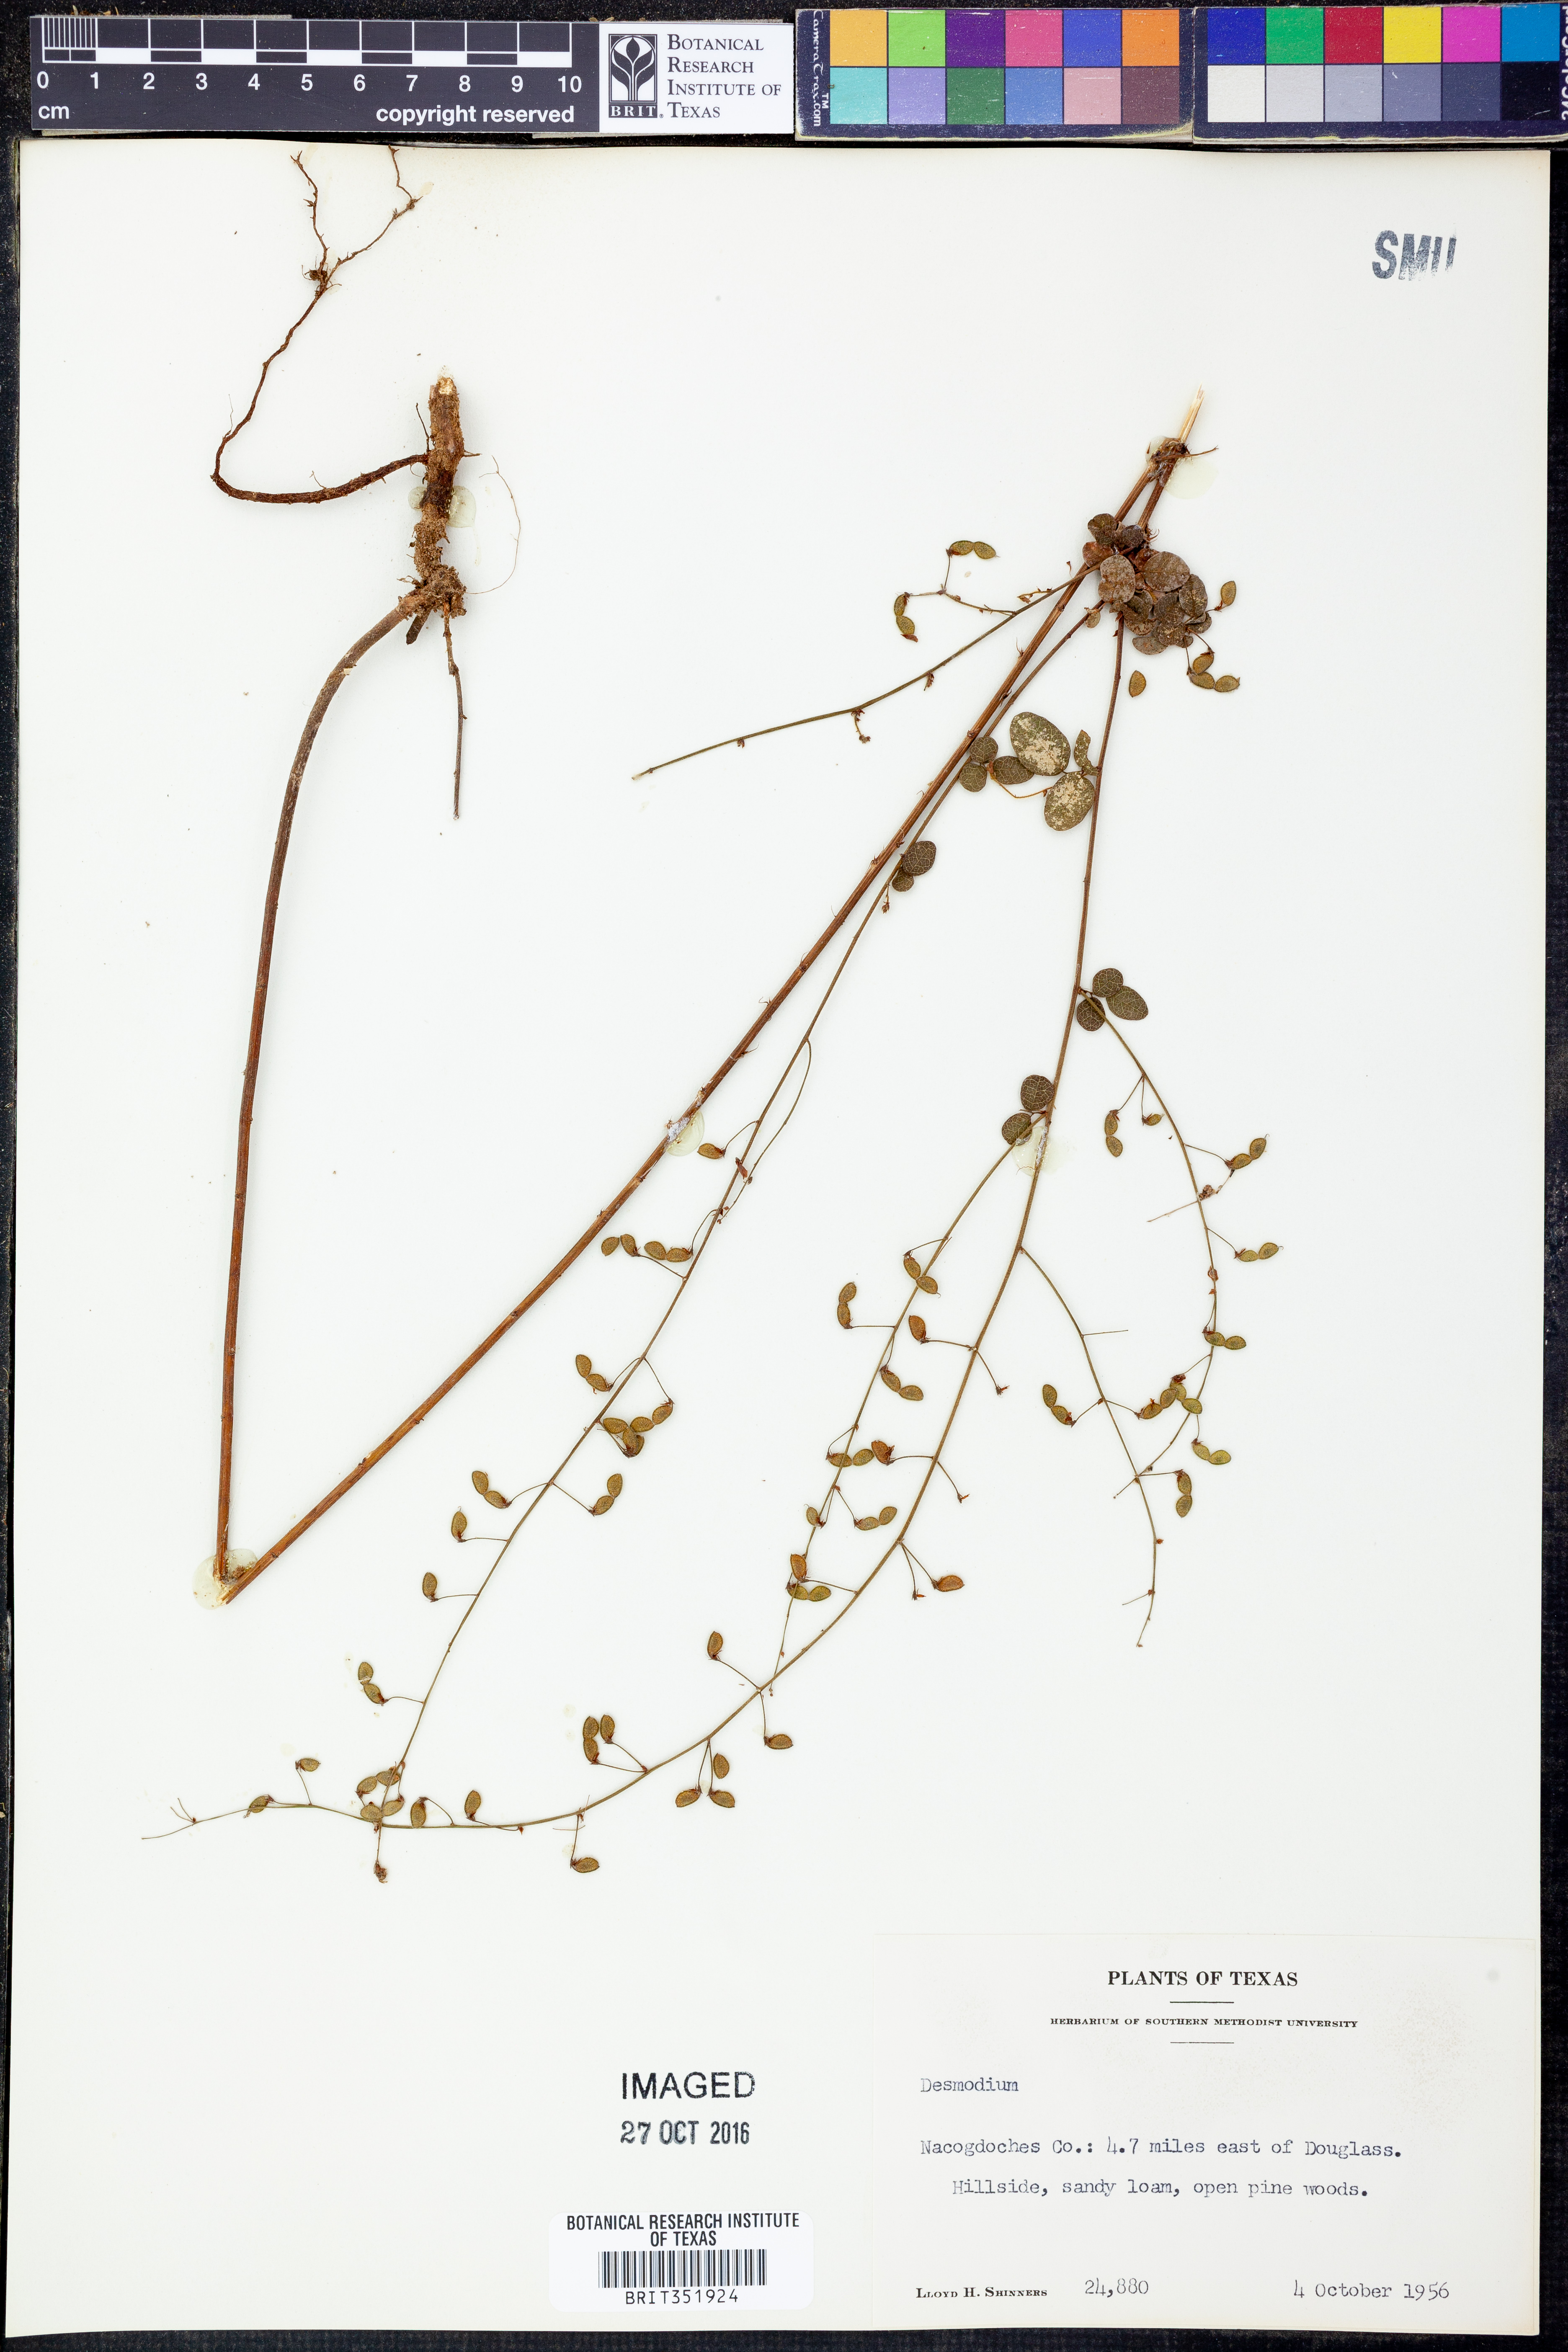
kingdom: Plantae
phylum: Tracheophyta
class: Magnoliopsida
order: Fabales
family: Fabaceae
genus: Desmodium
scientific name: Desmodium
